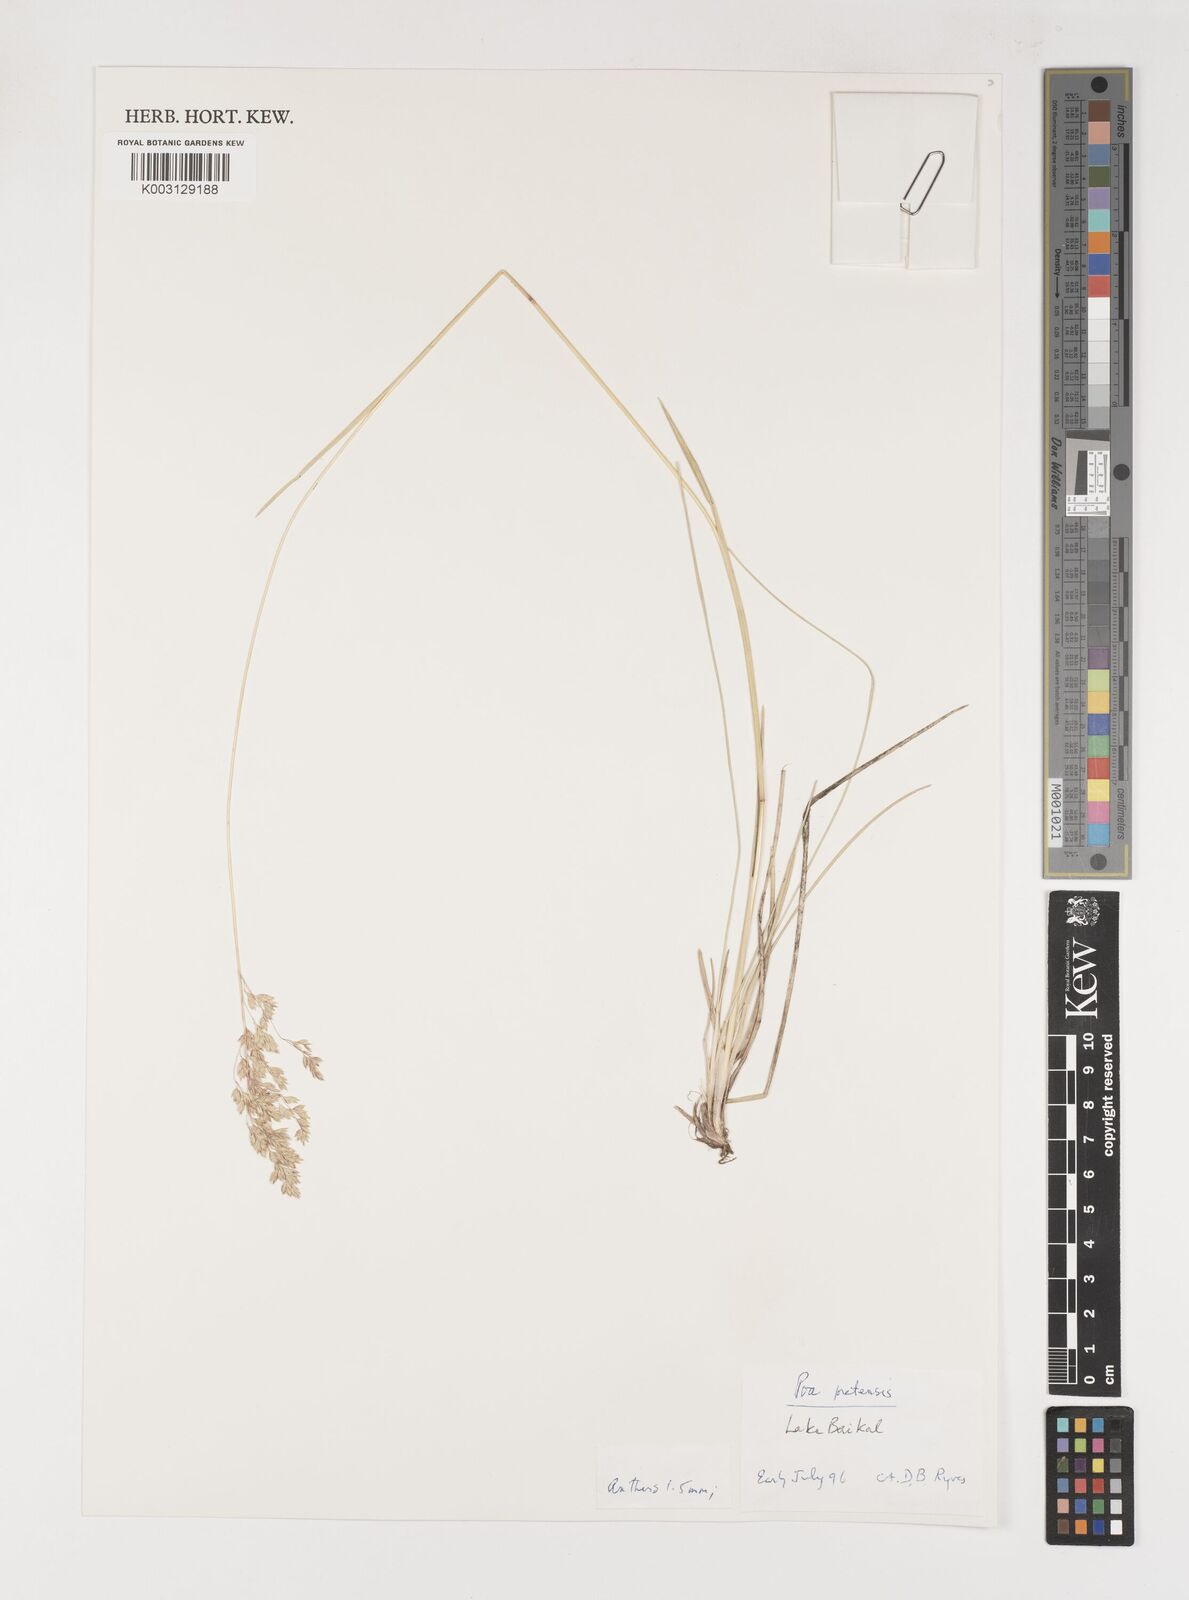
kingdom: Plantae
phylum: Tracheophyta
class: Liliopsida
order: Poales
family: Poaceae
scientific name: Poaceae
